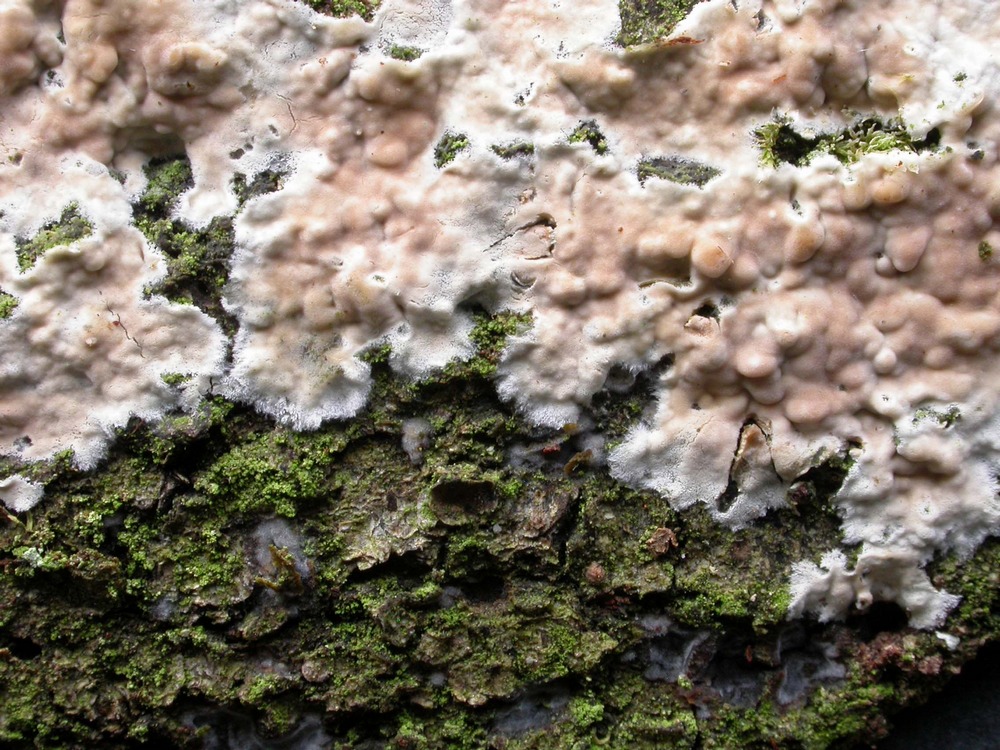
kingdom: Fungi
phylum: Basidiomycota
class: Agaricomycetes
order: Agaricales
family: Physalacriaceae
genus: Cylindrobasidium
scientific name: Cylindrobasidium evolvens
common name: sprækkehinde
